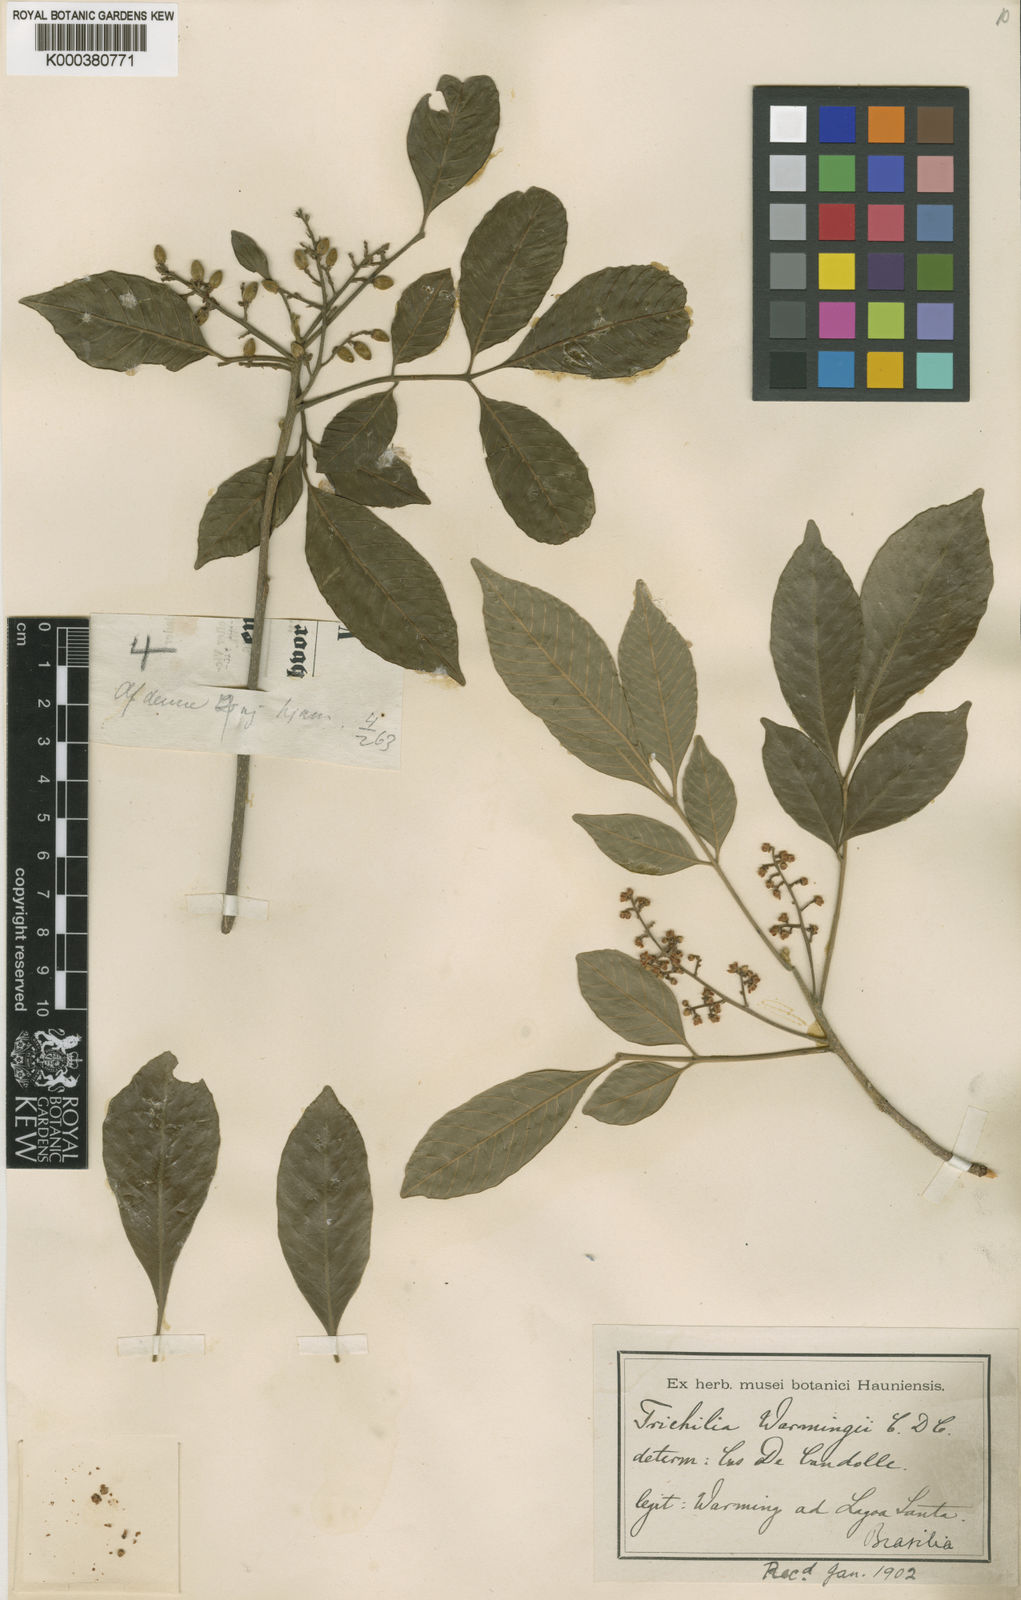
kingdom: Plantae
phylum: Tracheophyta
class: Magnoliopsida
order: Sapindales
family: Meliaceae
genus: Trichilia
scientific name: Trichilia elegans
